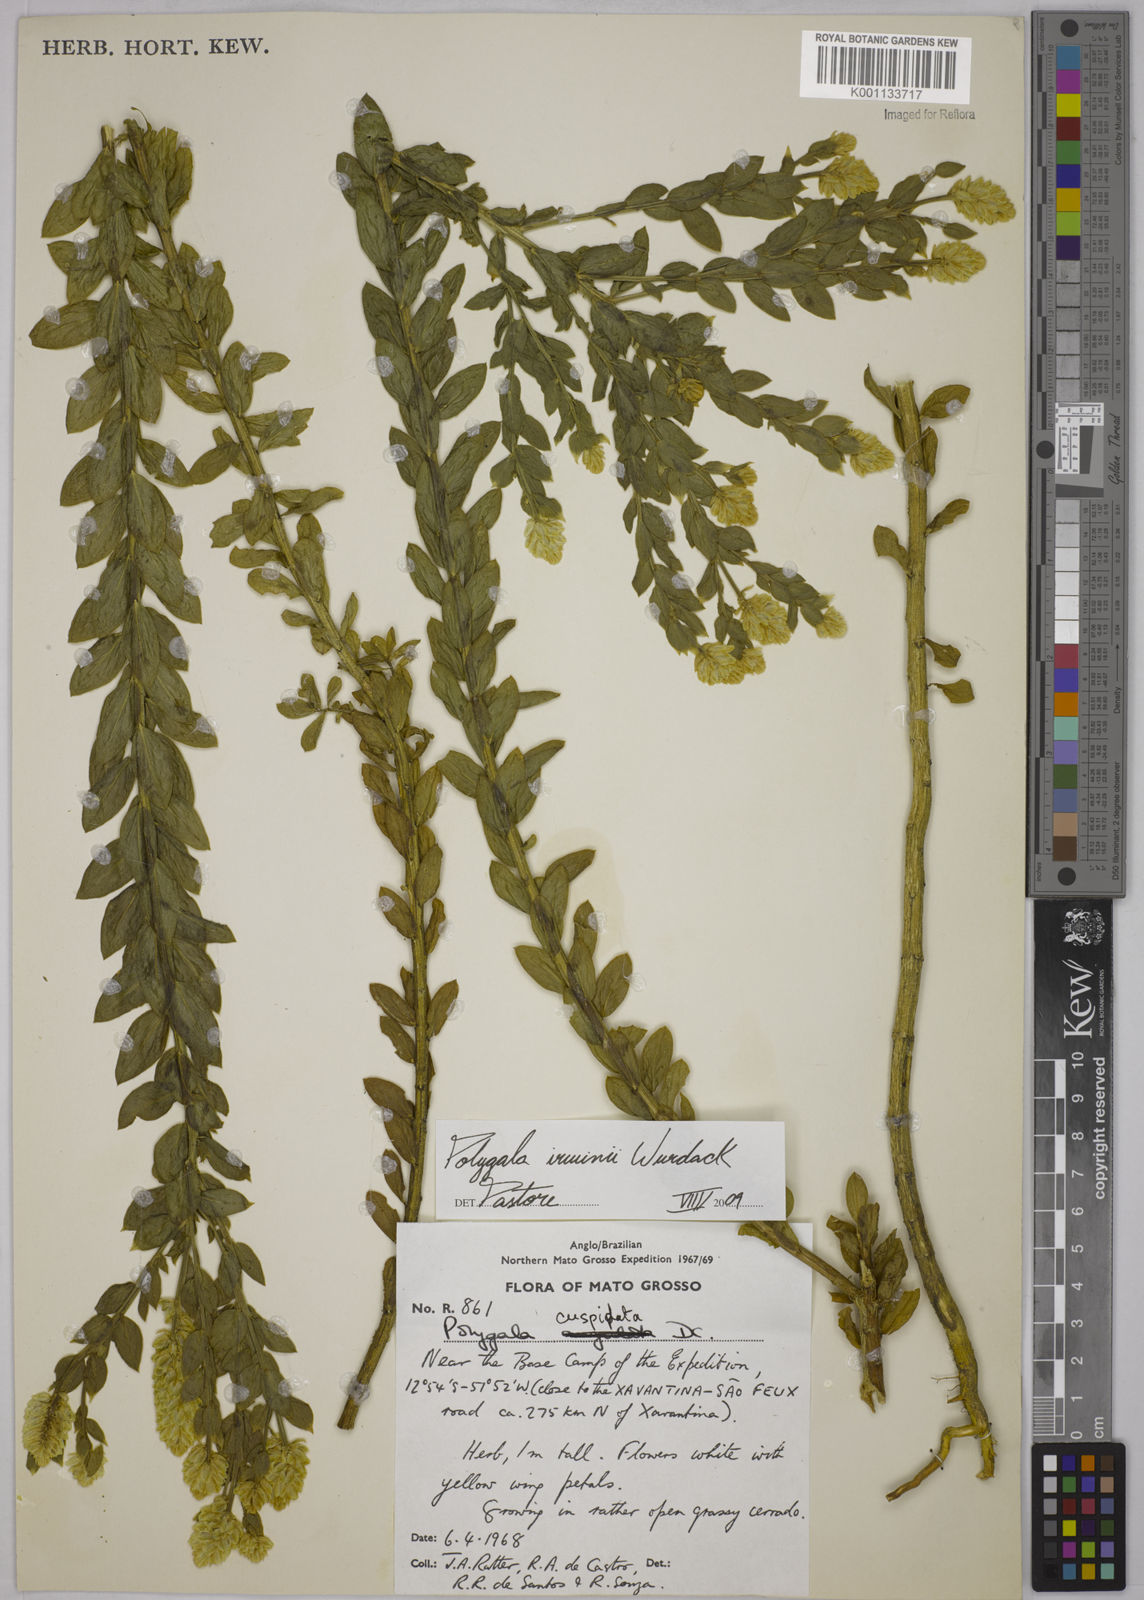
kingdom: Plantae
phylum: Tracheophyta
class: Magnoliopsida
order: Fabales
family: Polygalaceae
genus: Polygala
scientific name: Polygala irwinii
